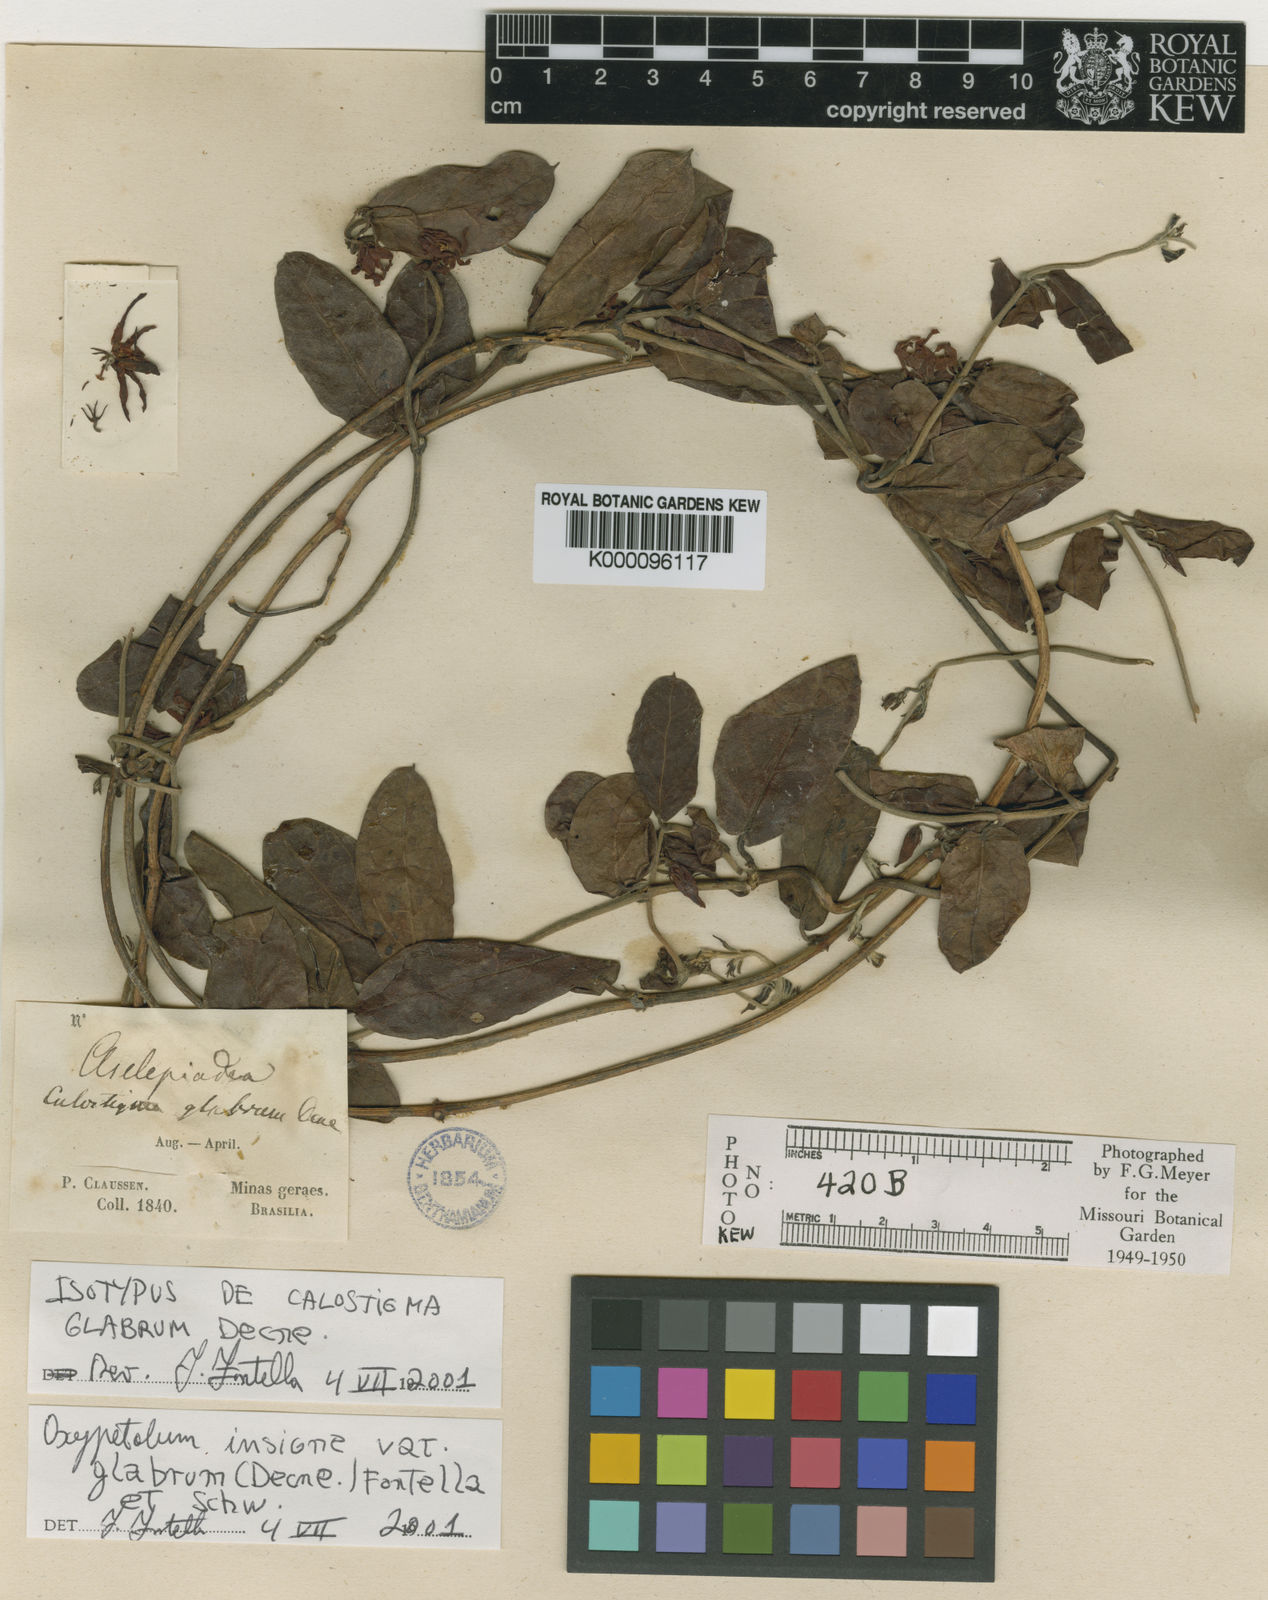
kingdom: Plantae
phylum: Tracheophyta
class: Magnoliopsida
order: Gentianales
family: Apocynaceae
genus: Oxypetalum
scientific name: Oxypetalum insigne
